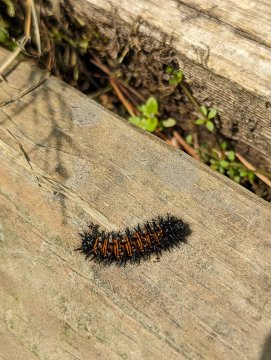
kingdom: Animalia
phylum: Arthropoda
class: Insecta
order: Lepidoptera
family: Nymphalidae
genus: Euphydryas
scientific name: Euphydryas phaeton
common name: Baltimore Checkerspot
